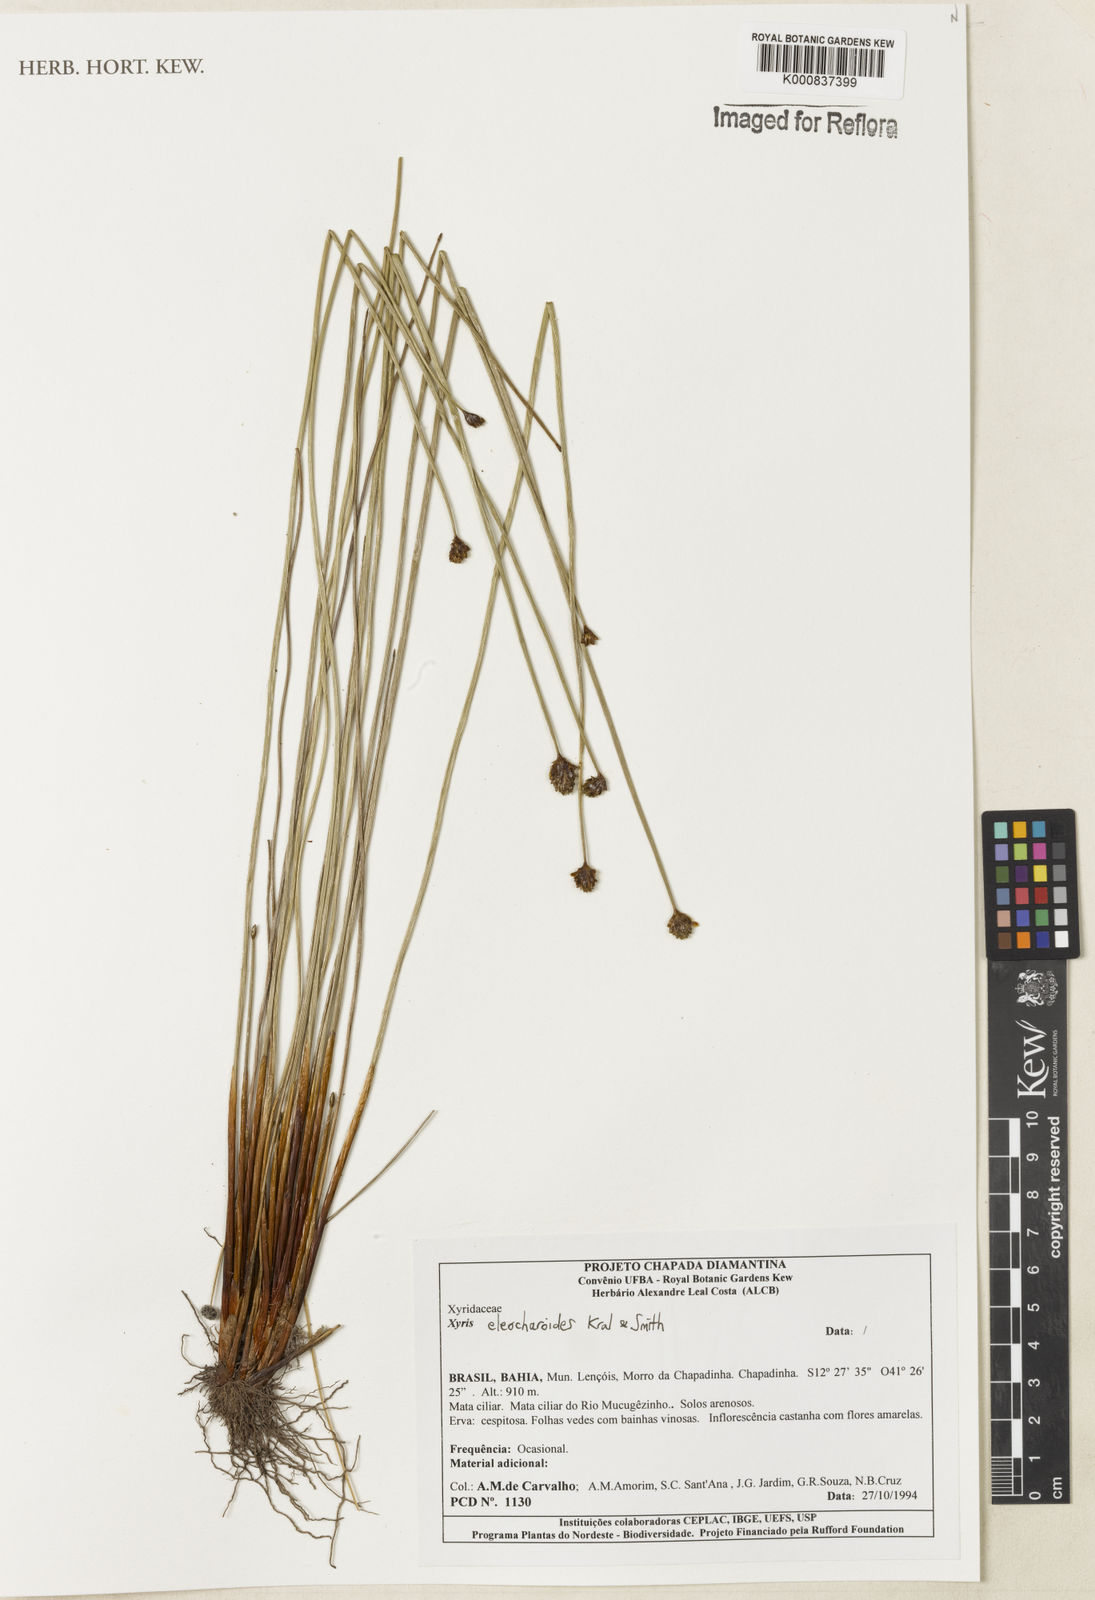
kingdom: Plantae
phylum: Tracheophyta
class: Liliopsida
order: Poales
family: Xyridaceae
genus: Xyris
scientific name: Xyris eleocharoides
